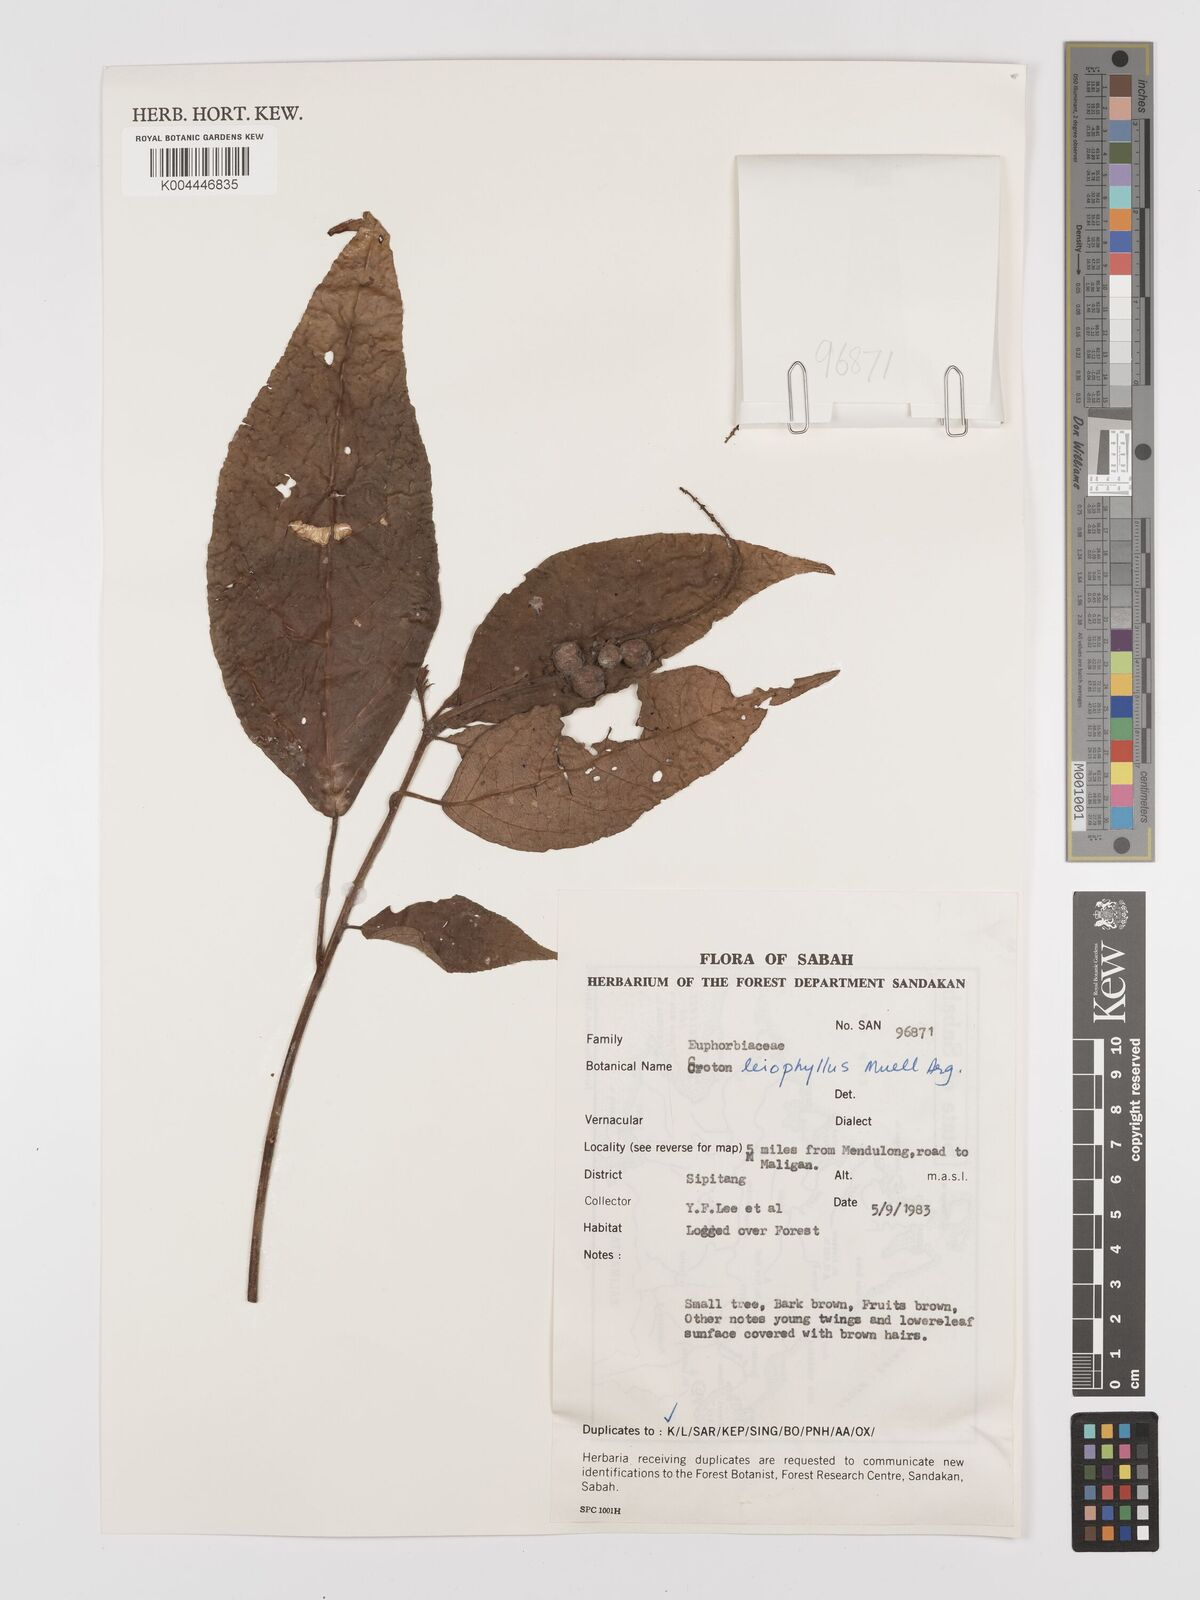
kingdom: Plantae
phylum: Tracheophyta
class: Magnoliopsida
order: Malpighiales
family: Euphorbiaceae
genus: Croton
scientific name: Croton leiophyllus
